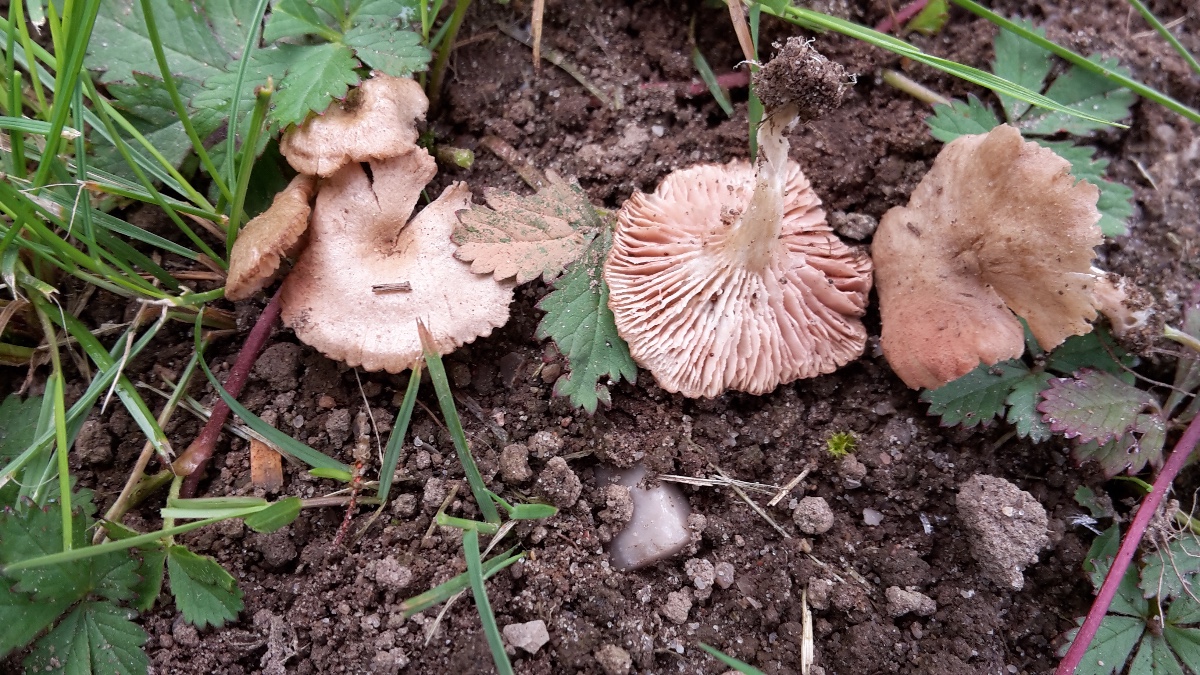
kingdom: Fungi
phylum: Basidiomycota
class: Agaricomycetes
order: Agaricales
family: Entolomataceae
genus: Entoloma
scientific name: Entoloma
